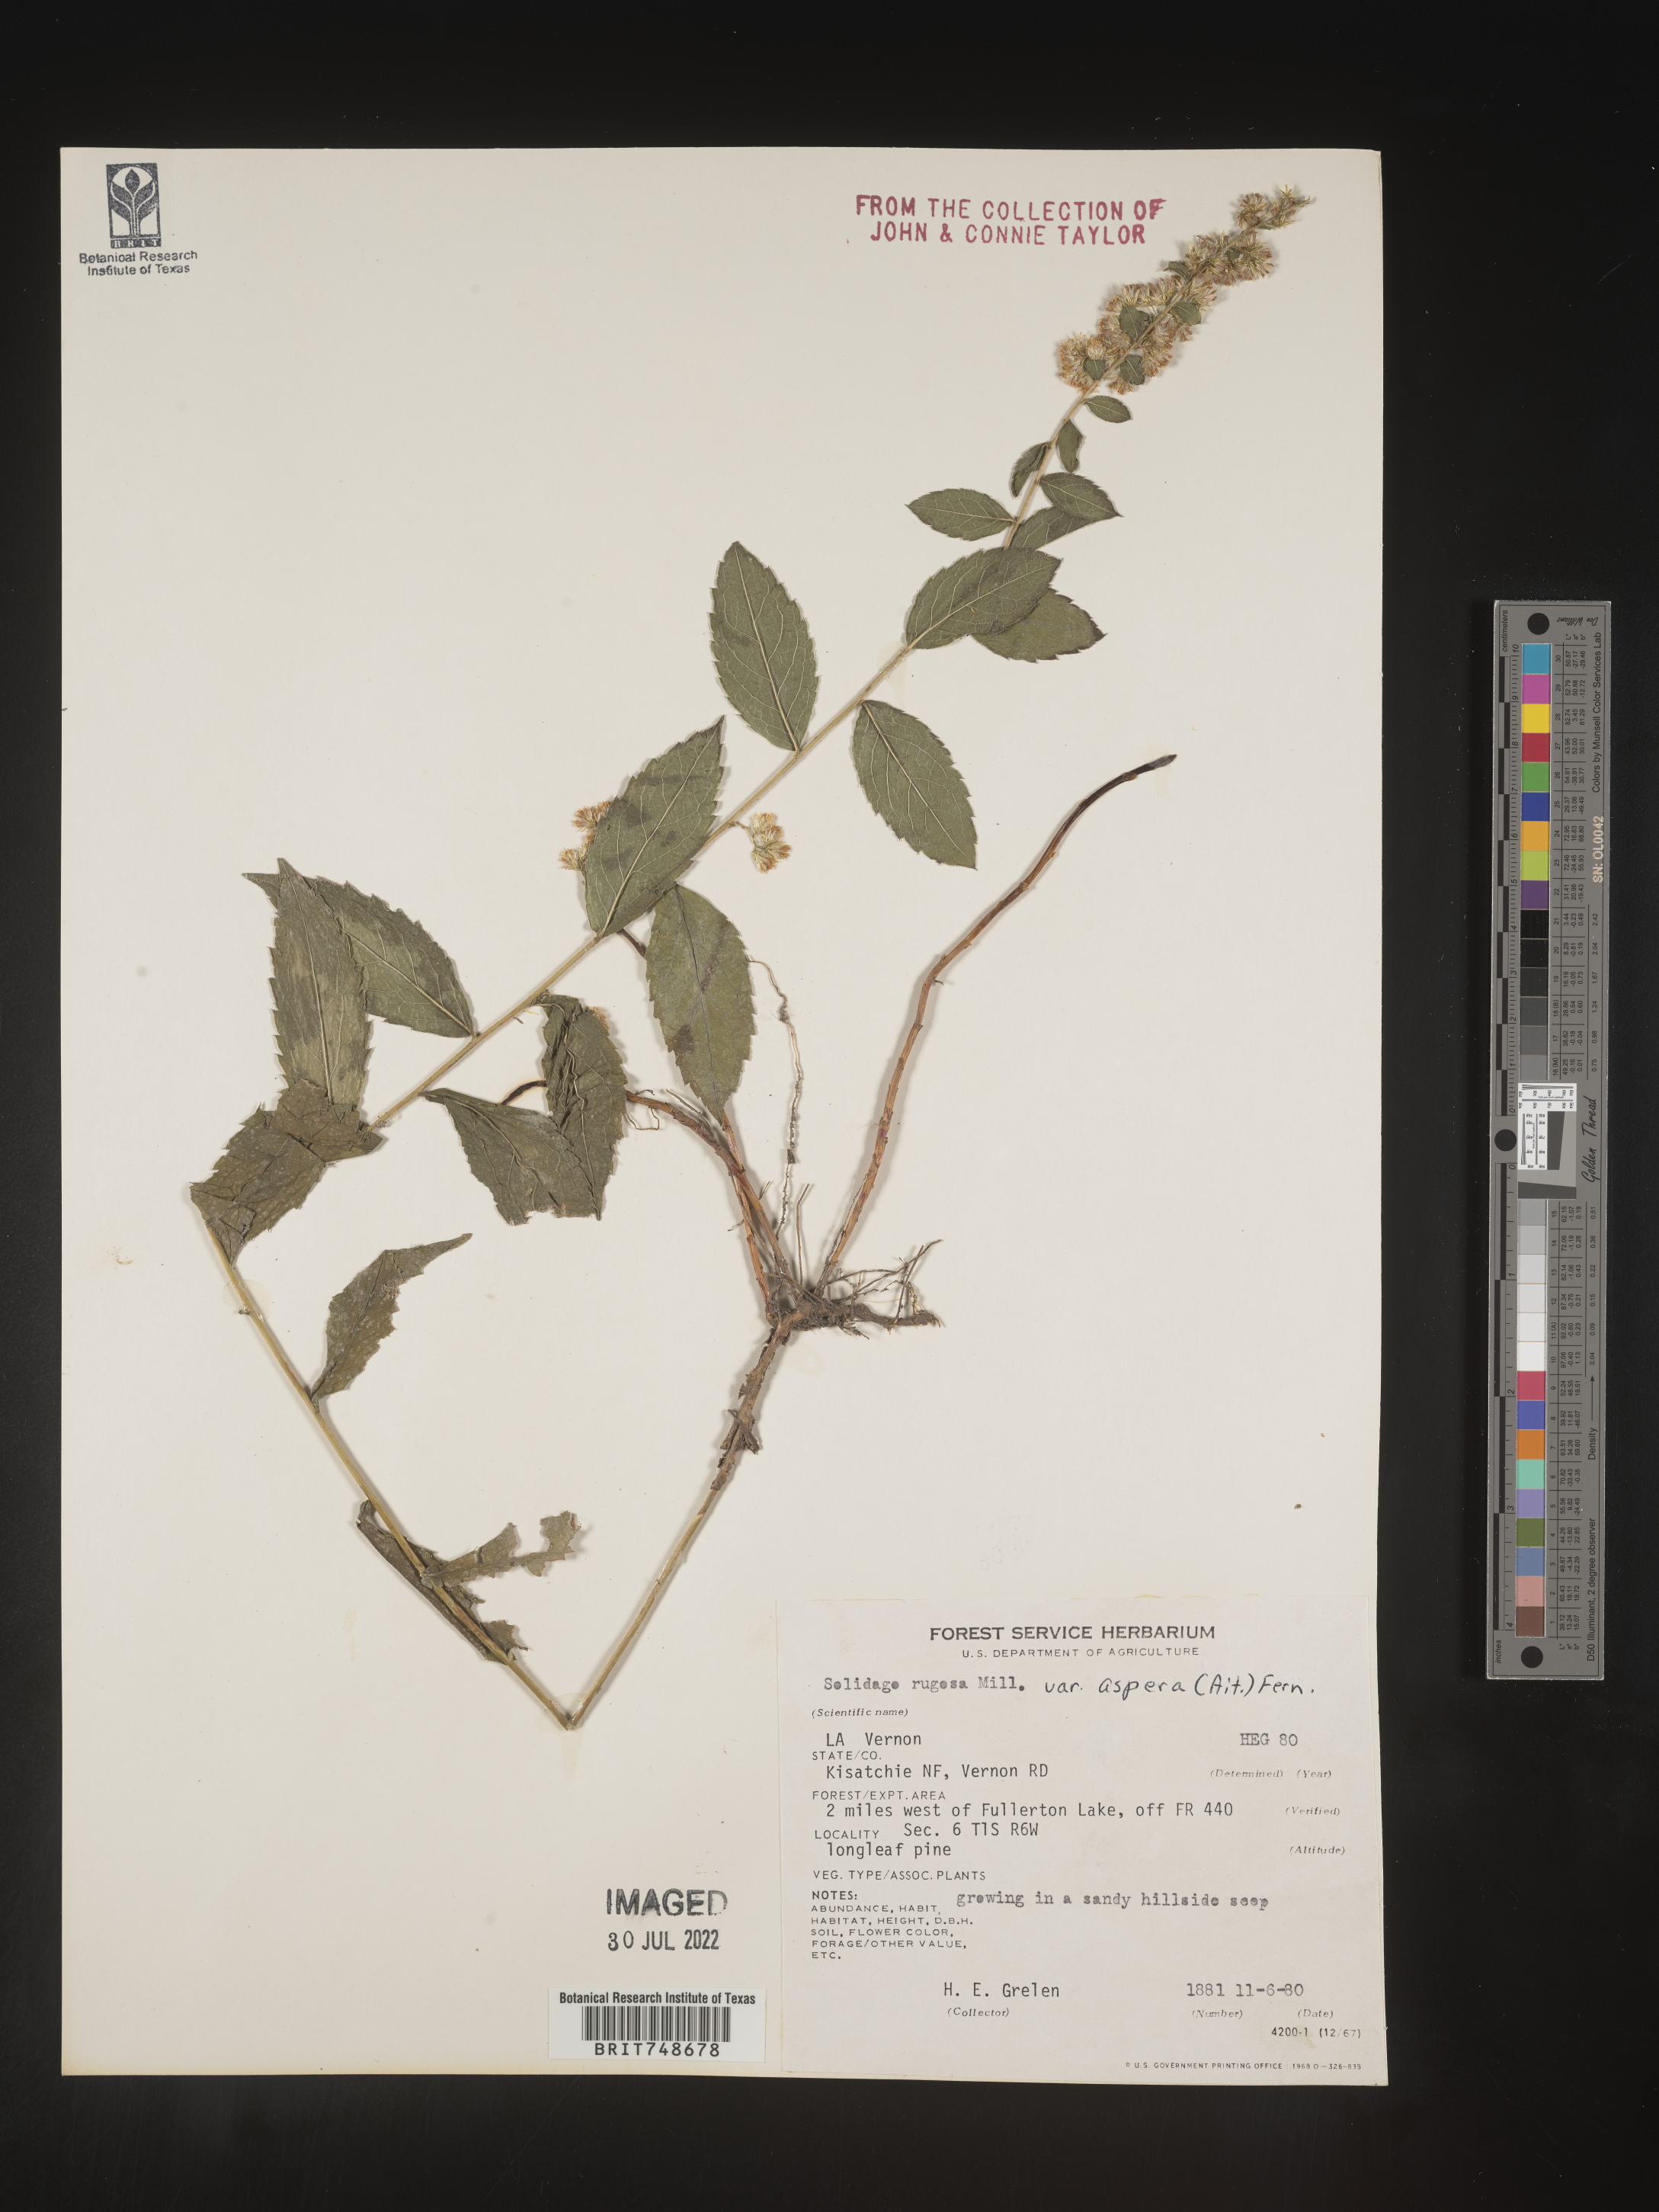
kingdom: Plantae
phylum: Tracheophyta
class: Magnoliopsida
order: Asterales
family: Asteraceae
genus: Solidago
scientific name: Solidago rugosa
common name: Rough-stemmed goldenrod
